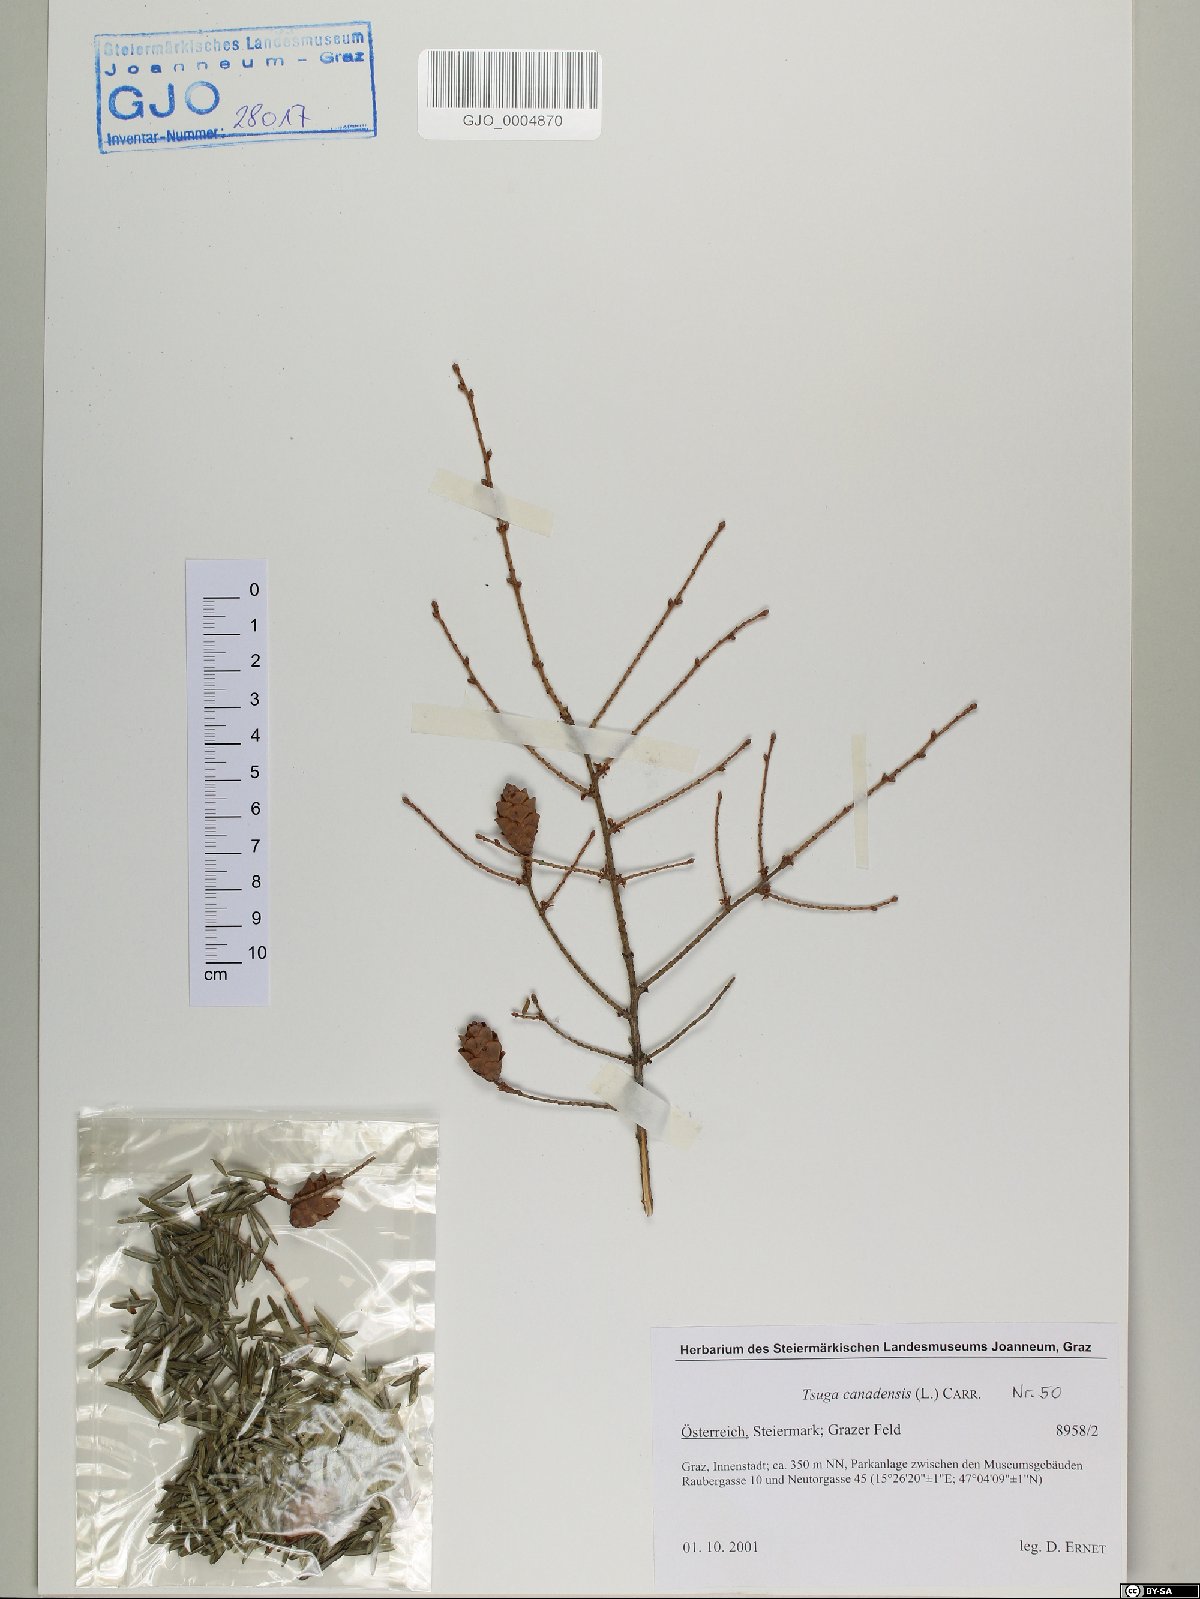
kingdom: Plantae
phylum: Tracheophyta
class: Pinopsida
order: Pinales
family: Pinaceae
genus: Tsuga
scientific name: Tsuga canadensis
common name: Eastern hemlock
